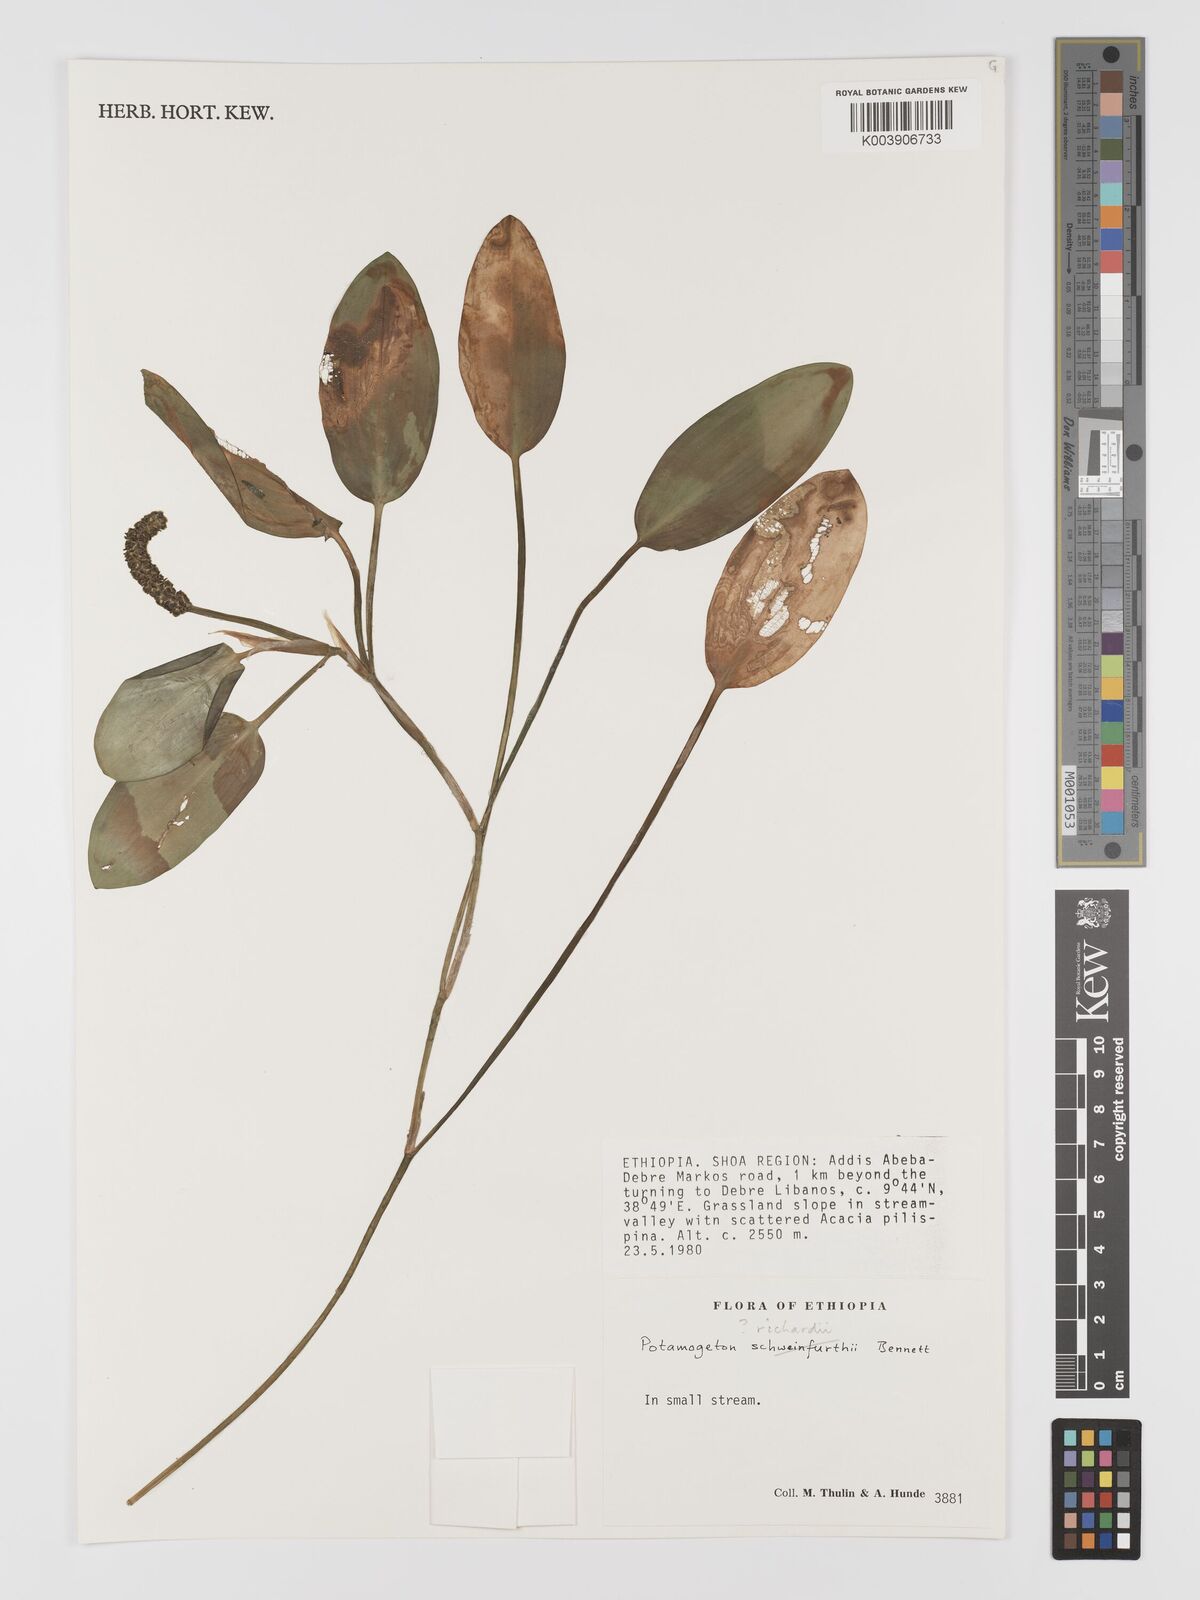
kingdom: Plantae
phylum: Tracheophyta
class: Liliopsida
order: Alismatales
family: Potamogetonaceae
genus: Potamogeton
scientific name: Potamogeton richardii
